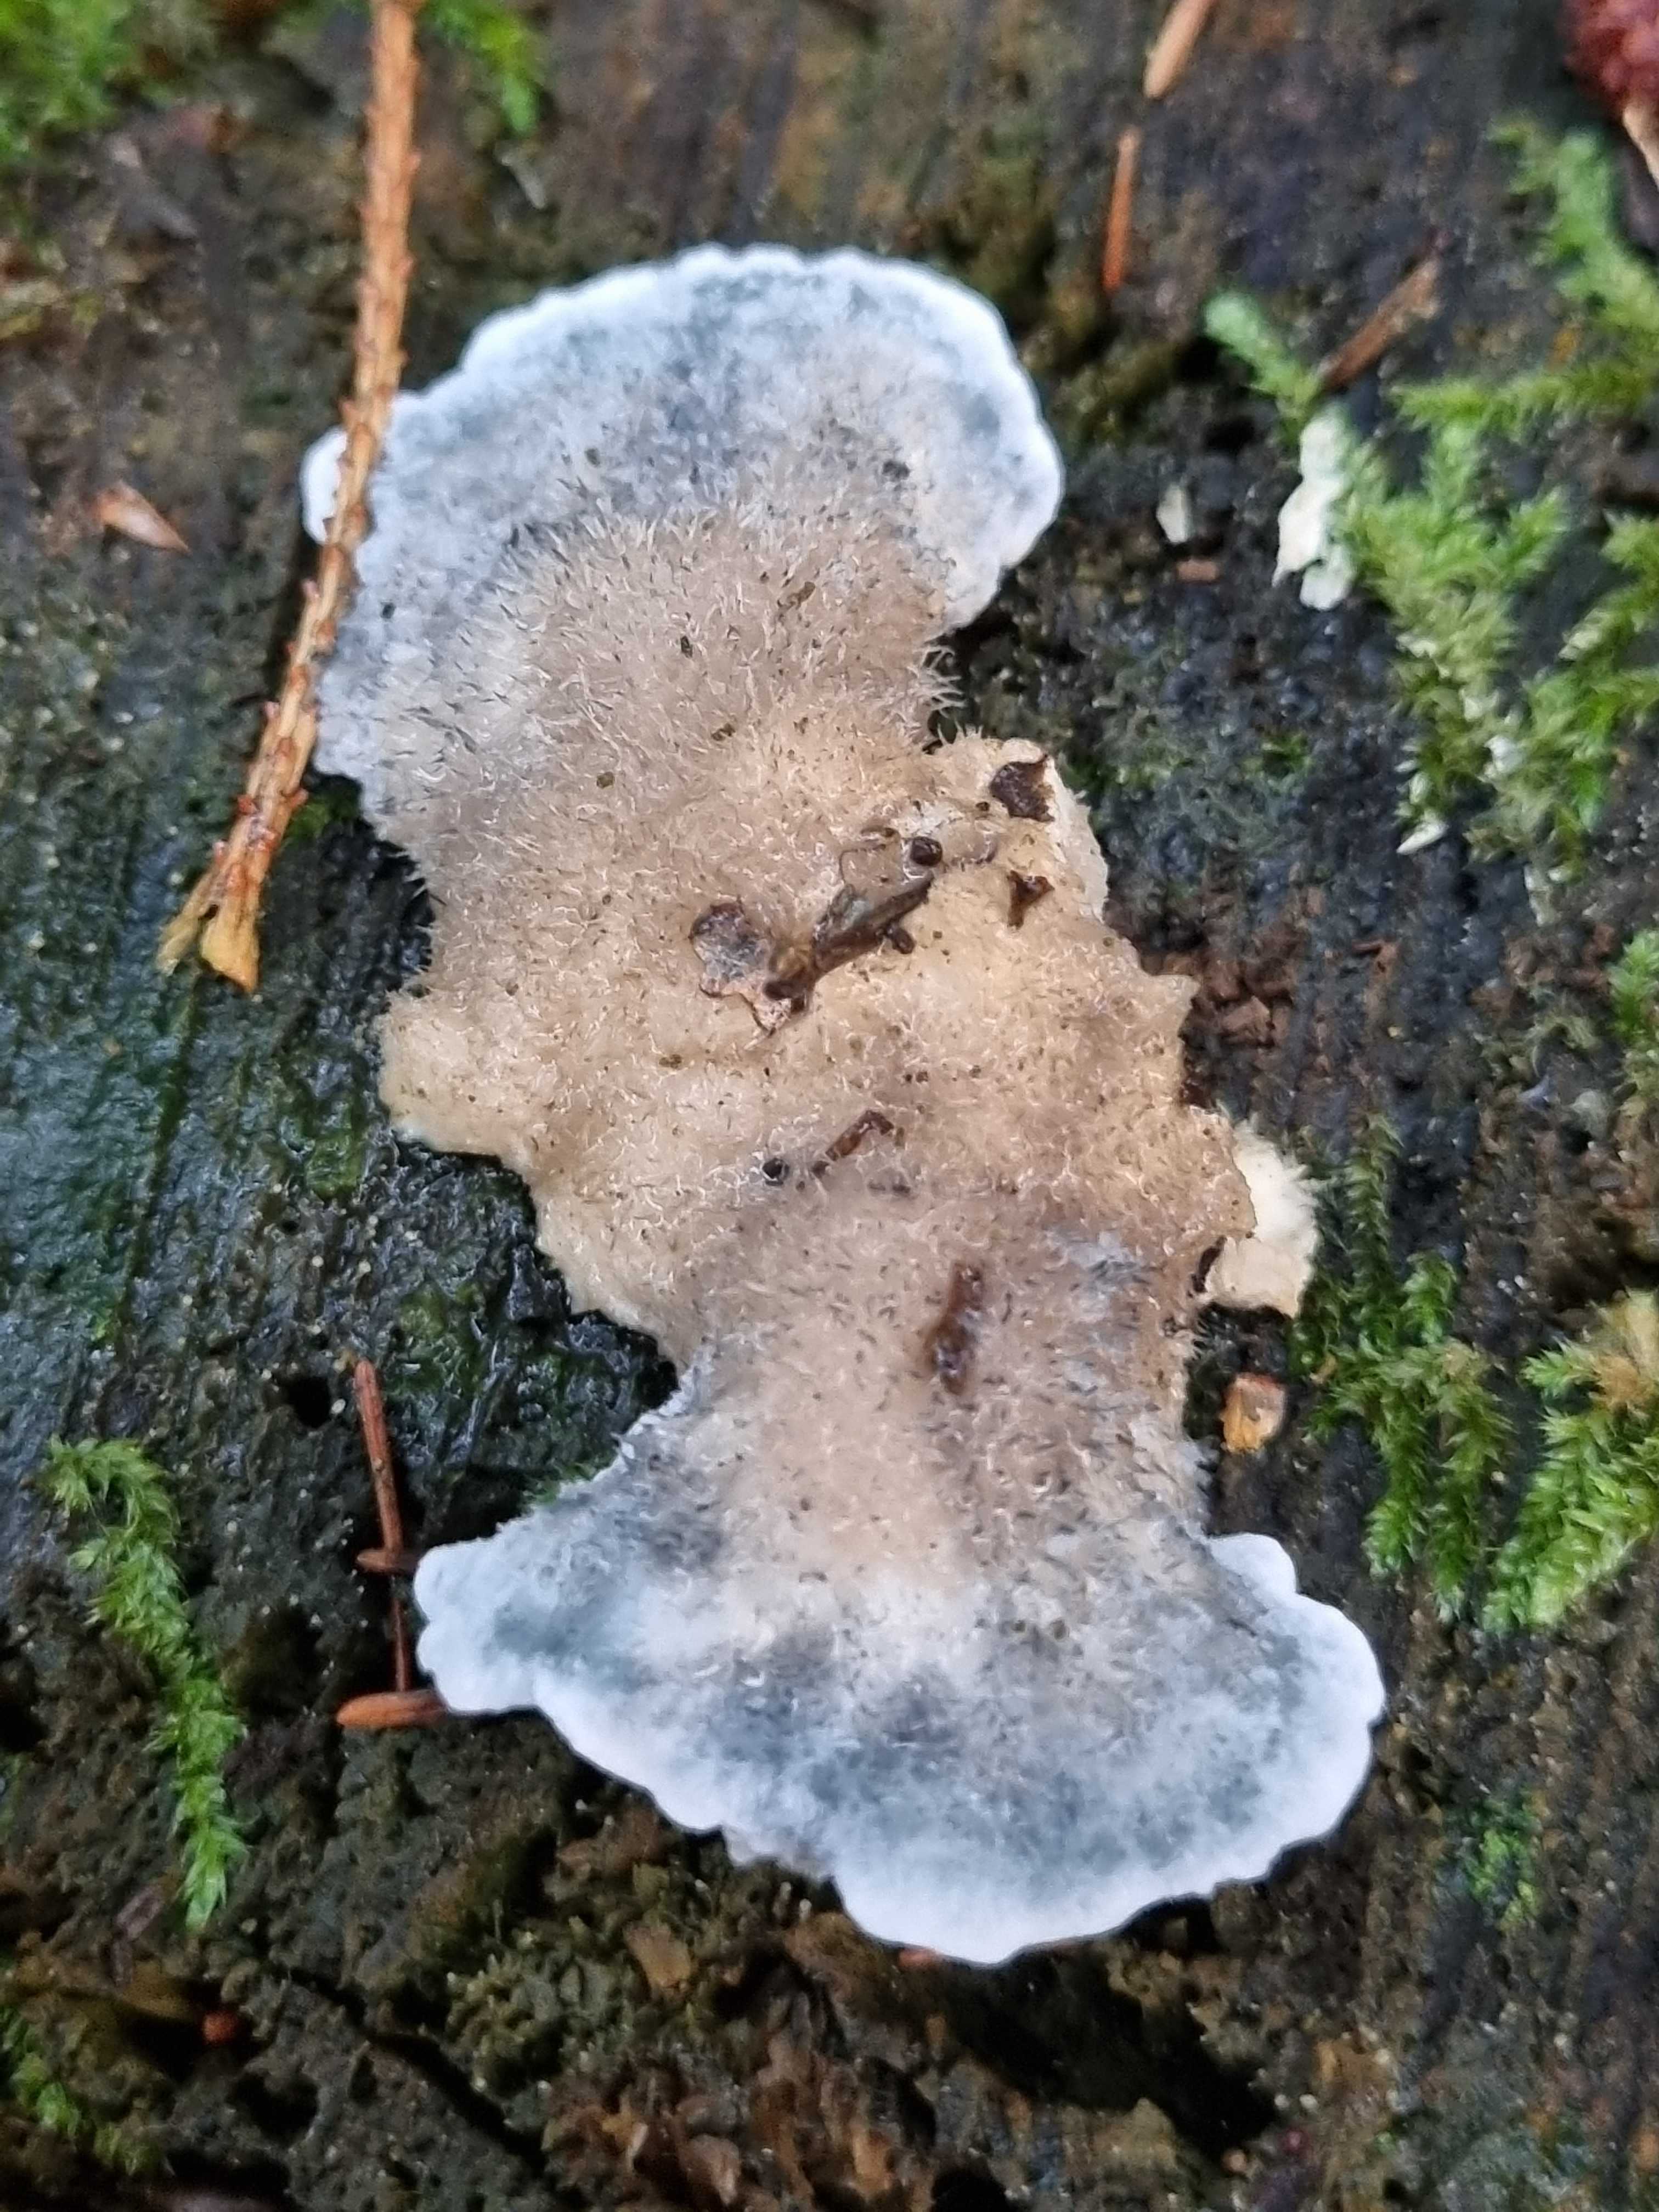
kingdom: Fungi
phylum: Basidiomycota
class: Agaricomycetes
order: Polyporales
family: Polyporaceae
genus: Cyanosporus
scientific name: Cyanosporus caesius
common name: blålig kødporesvamp
